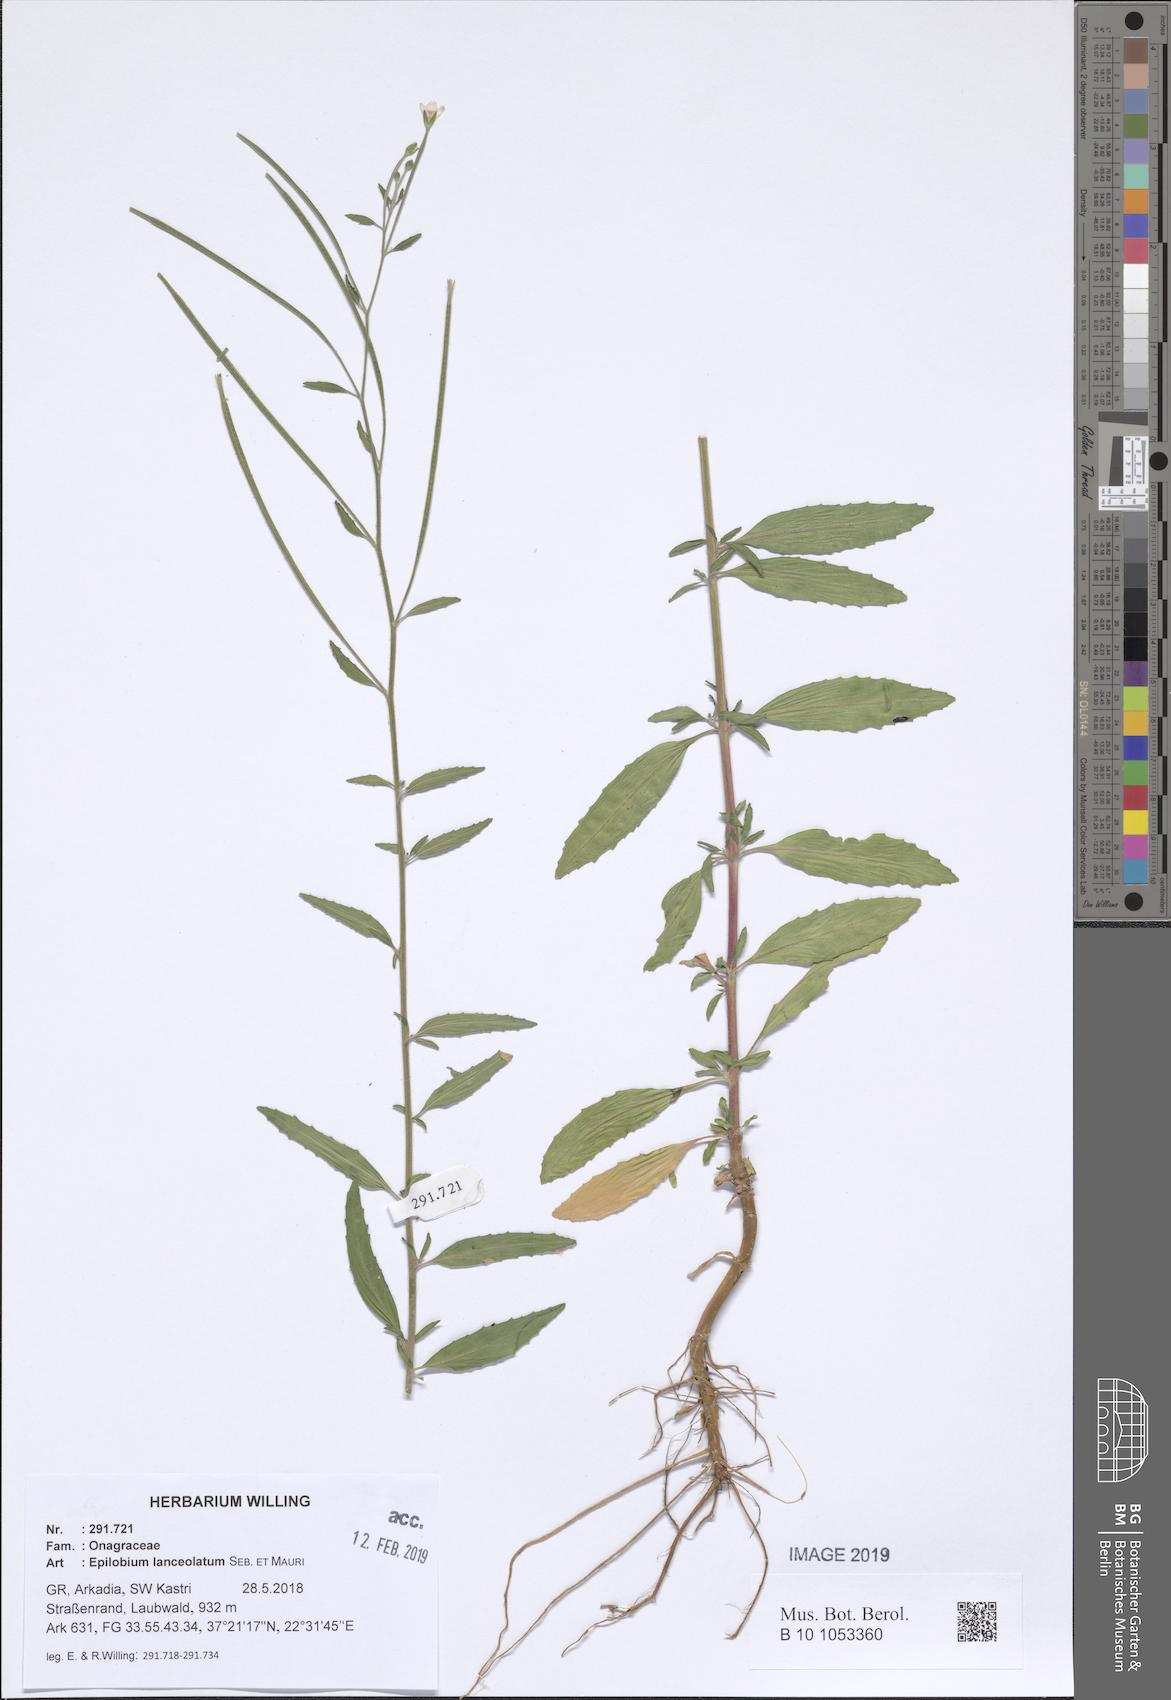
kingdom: Plantae
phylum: Tracheophyta
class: Magnoliopsida
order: Myrtales
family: Onagraceae
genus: Epilobium
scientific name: Epilobium lanceolatum
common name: Spear-leaved willowherb
